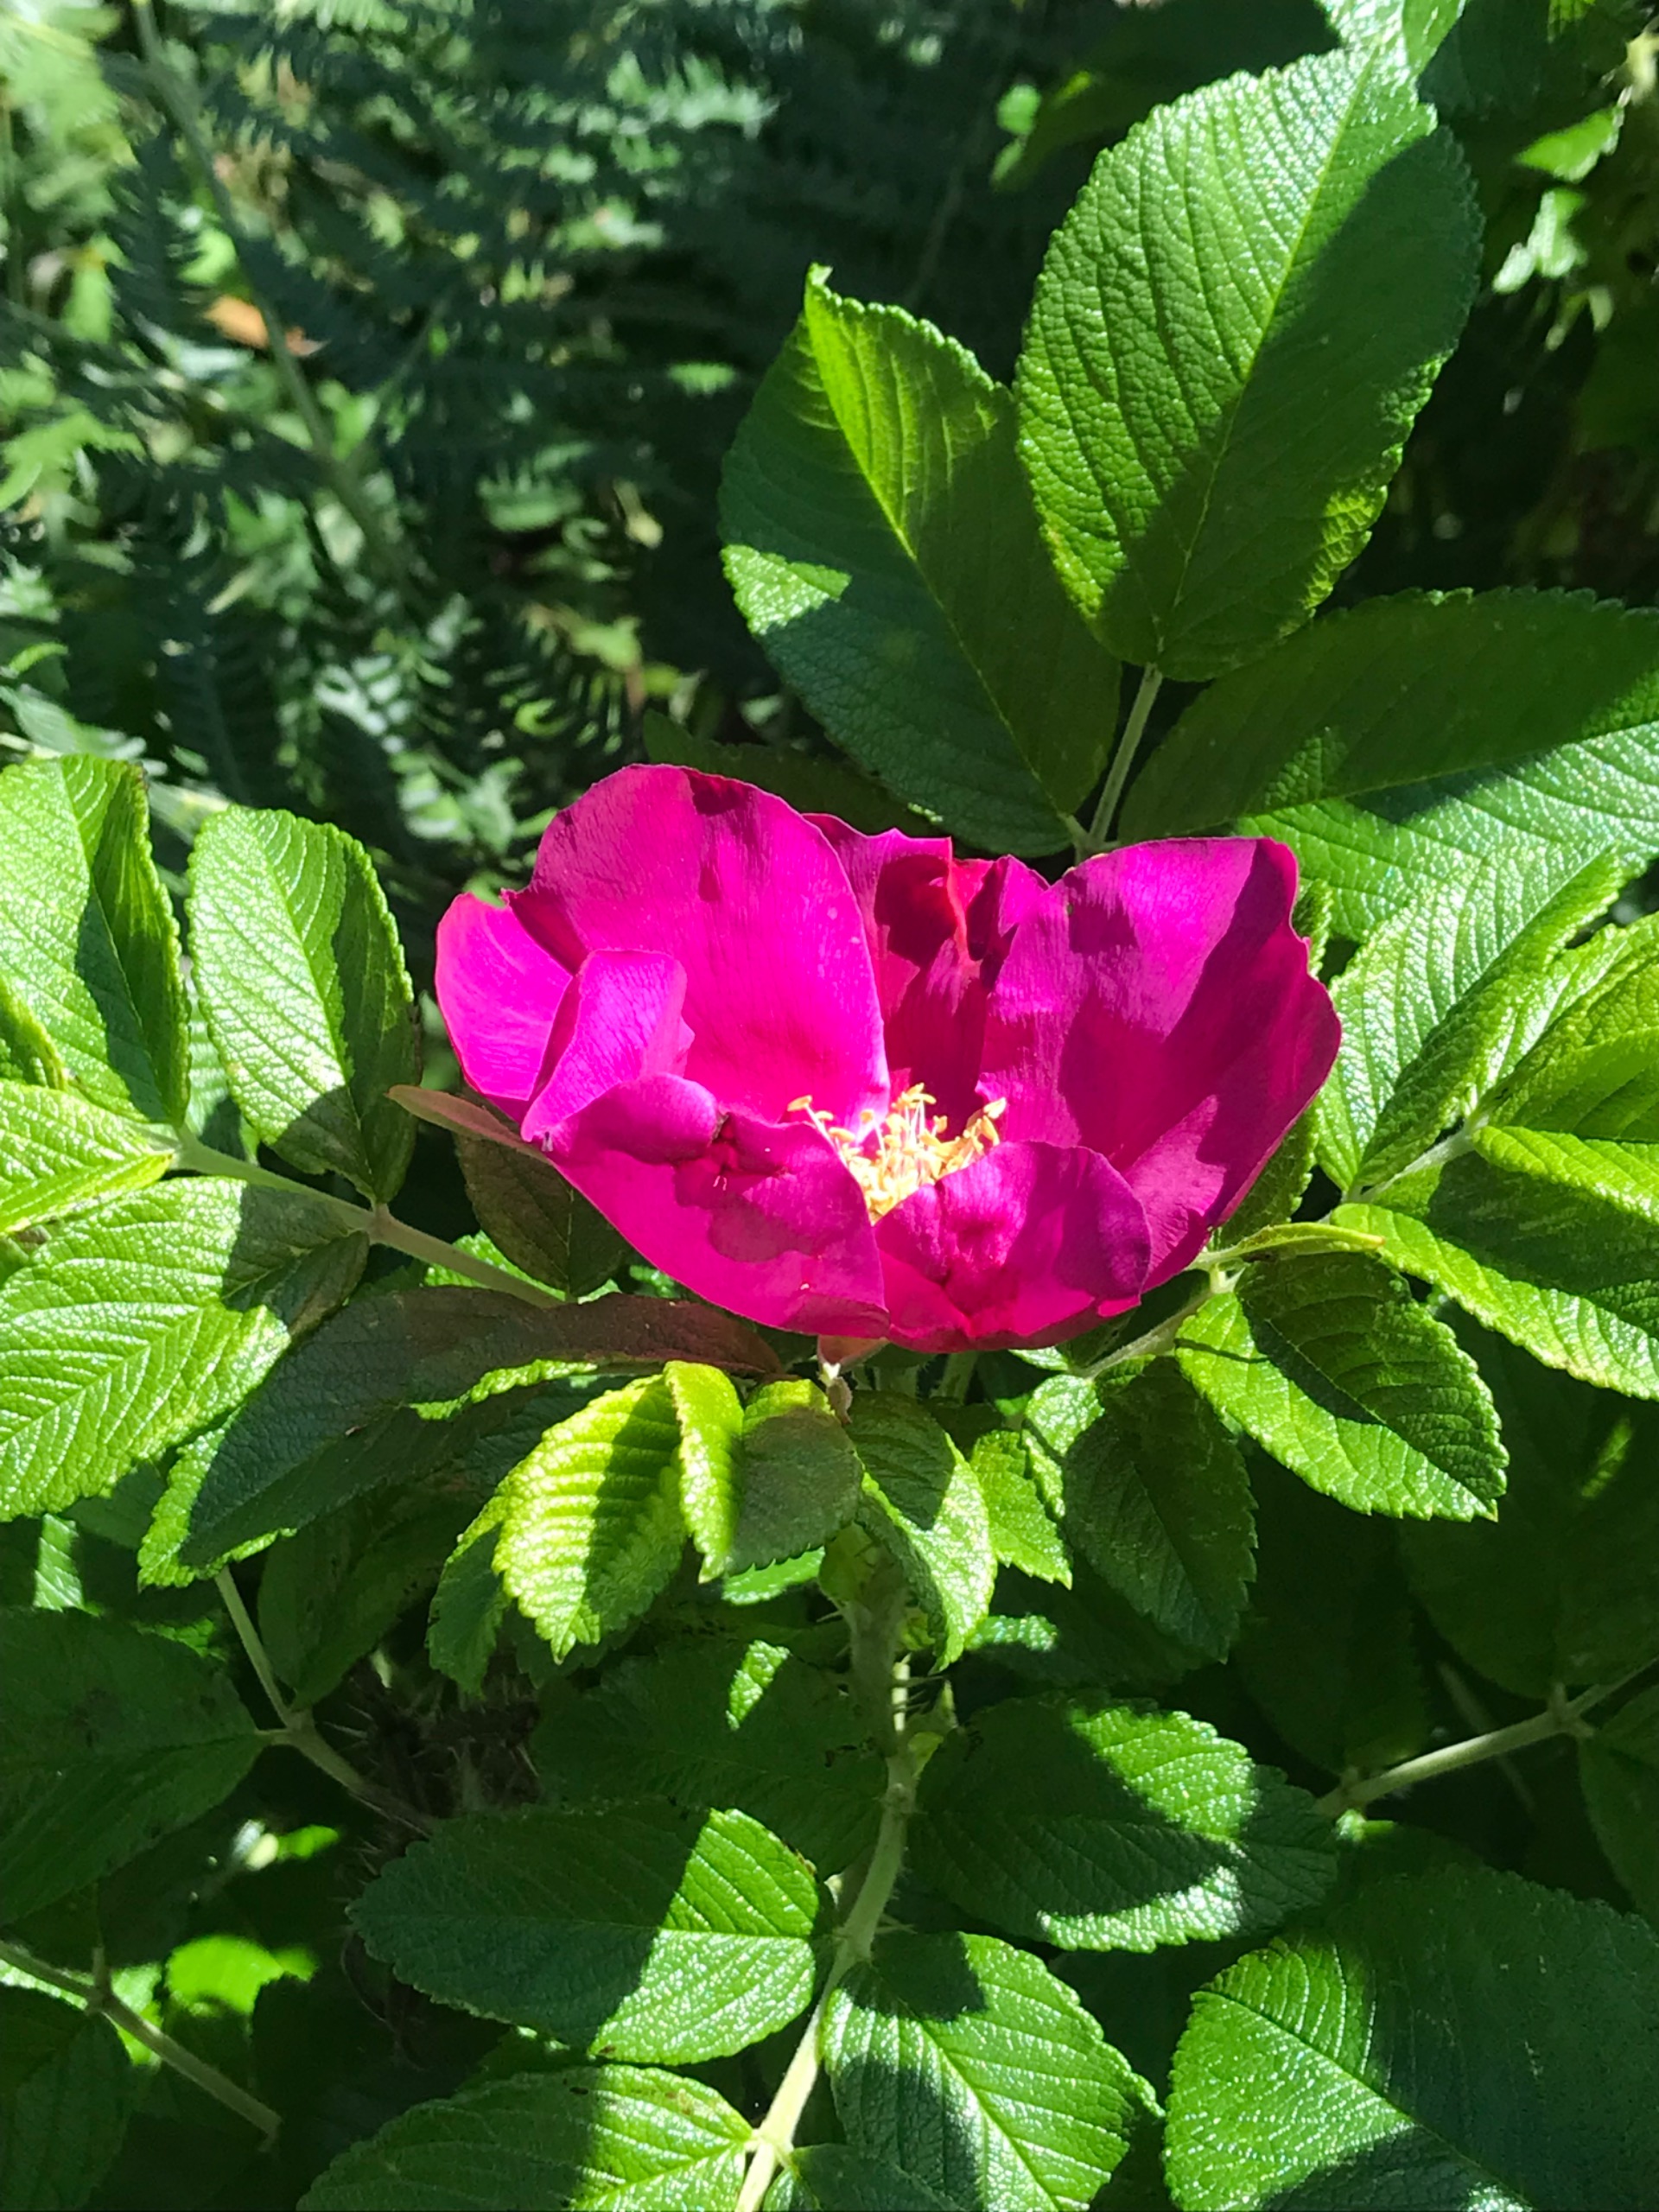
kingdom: Plantae
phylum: Tracheophyta
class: Magnoliopsida
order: Rosales
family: Rosaceae
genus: Rosa
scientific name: Rosa rugosa
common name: Rynket rose
